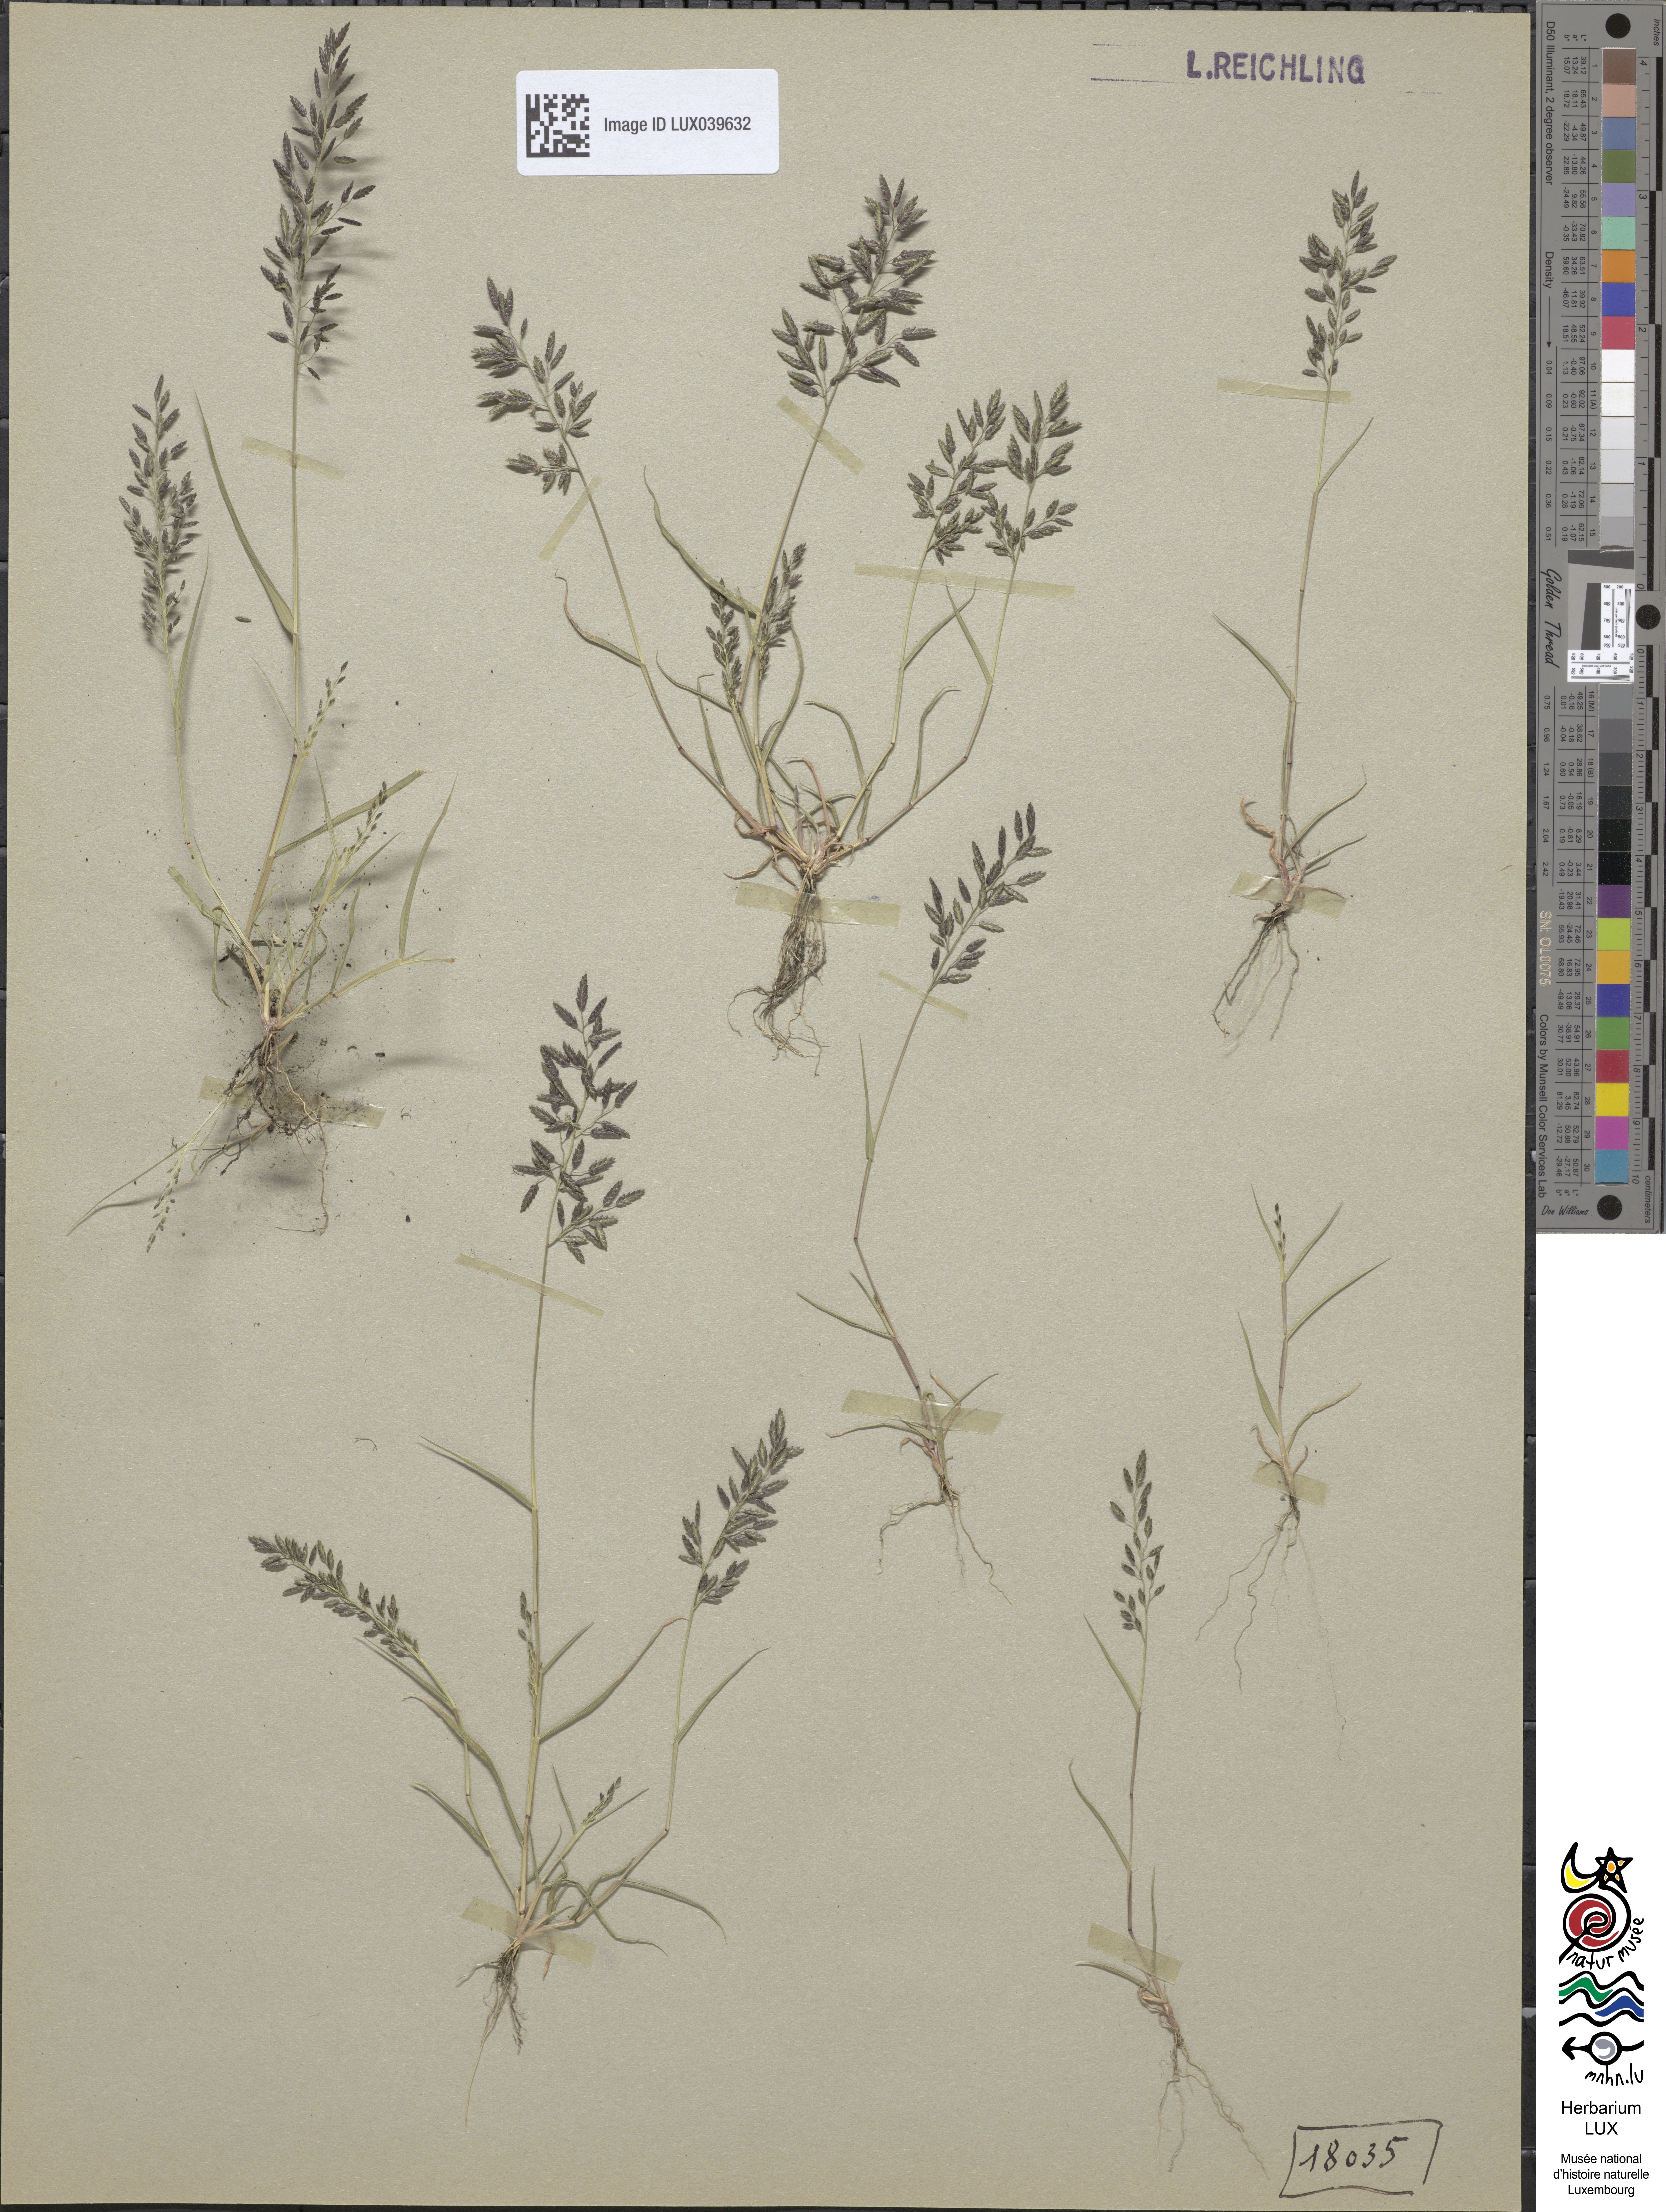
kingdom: Plantae
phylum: Tracheophyta
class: Liliopsida
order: Poales
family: Poaceae
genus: Eragrostis
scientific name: Eragrostis minor
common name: Small love-grass
